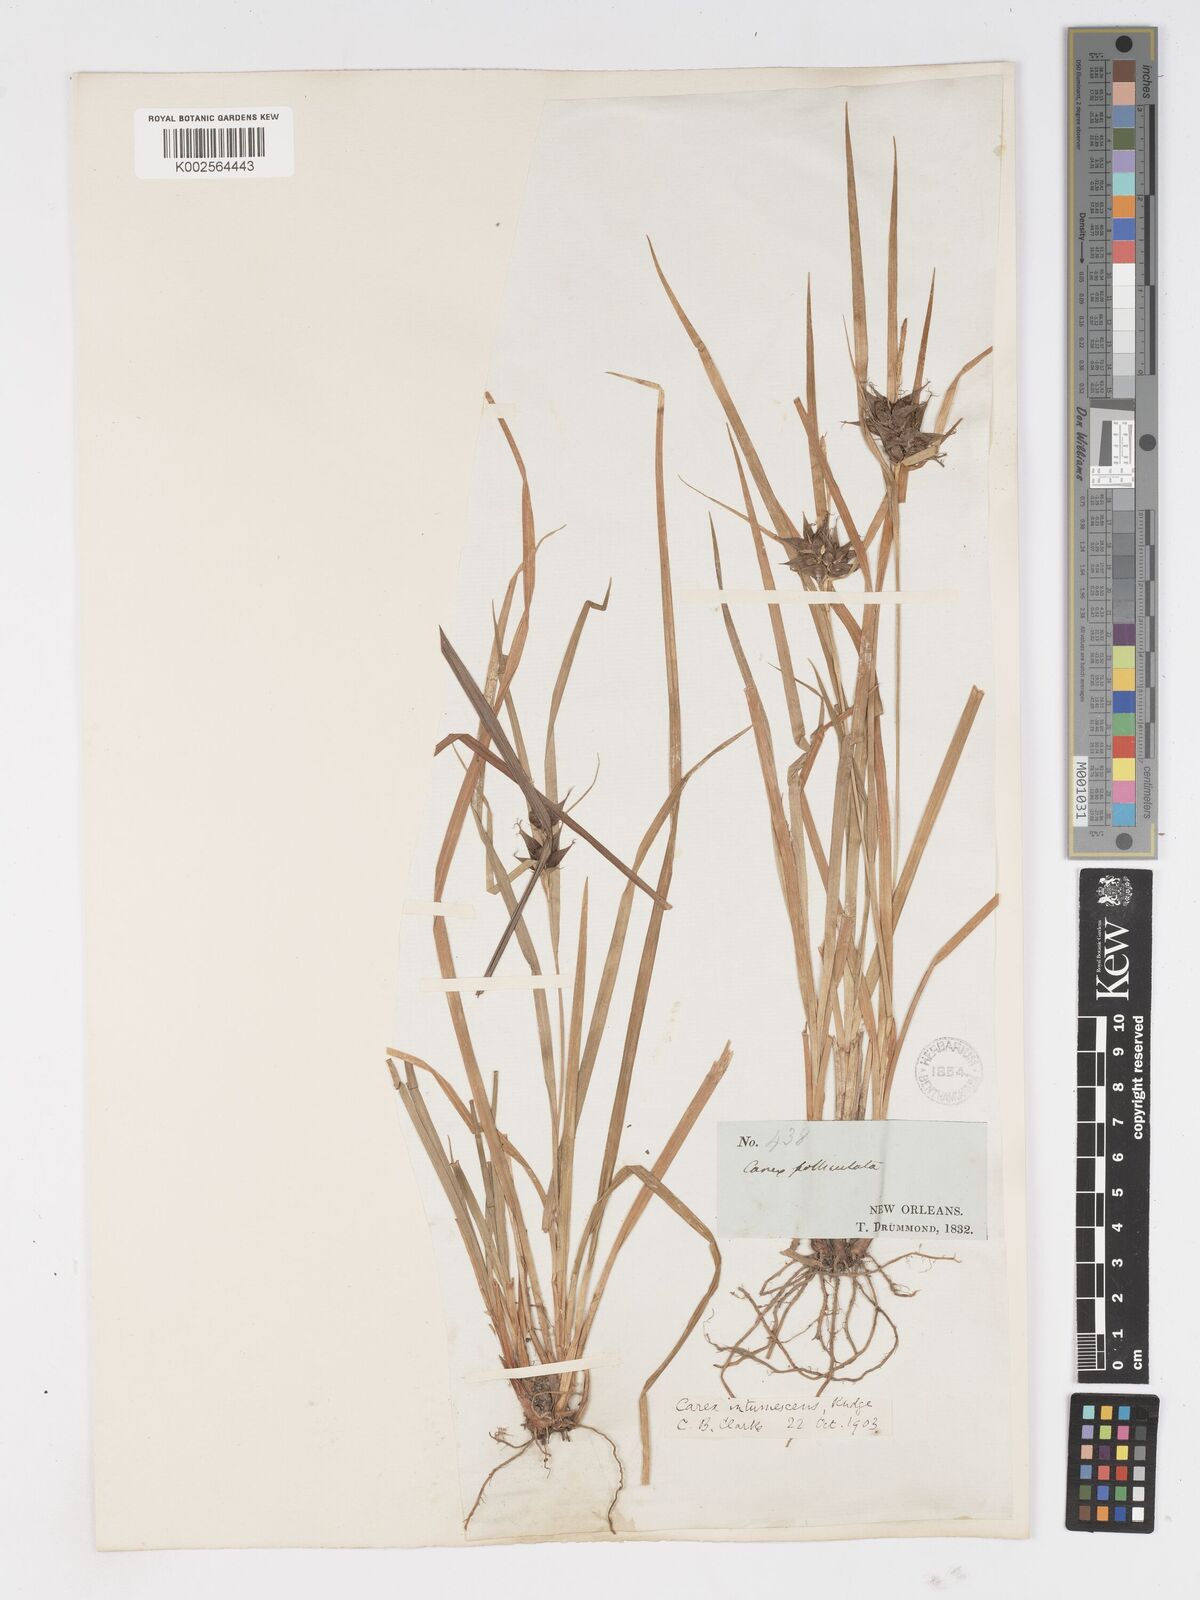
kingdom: Plantae
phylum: Tracheophyta
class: Liliopsida
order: Poales
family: Cyperaceae
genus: Carex
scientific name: Carex intumescens
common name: Greater bladder sedge
